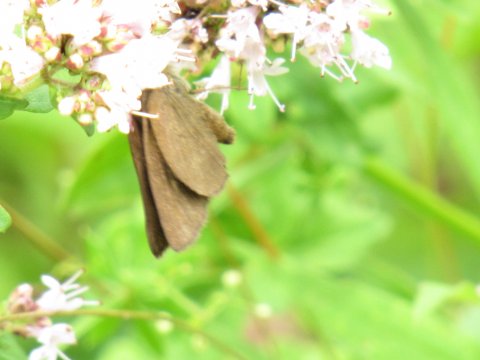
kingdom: Animalia
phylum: Arthropoda
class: Insecta
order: Lepidoptera
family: Hesperiidae
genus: Euphyes
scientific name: Euphyes
